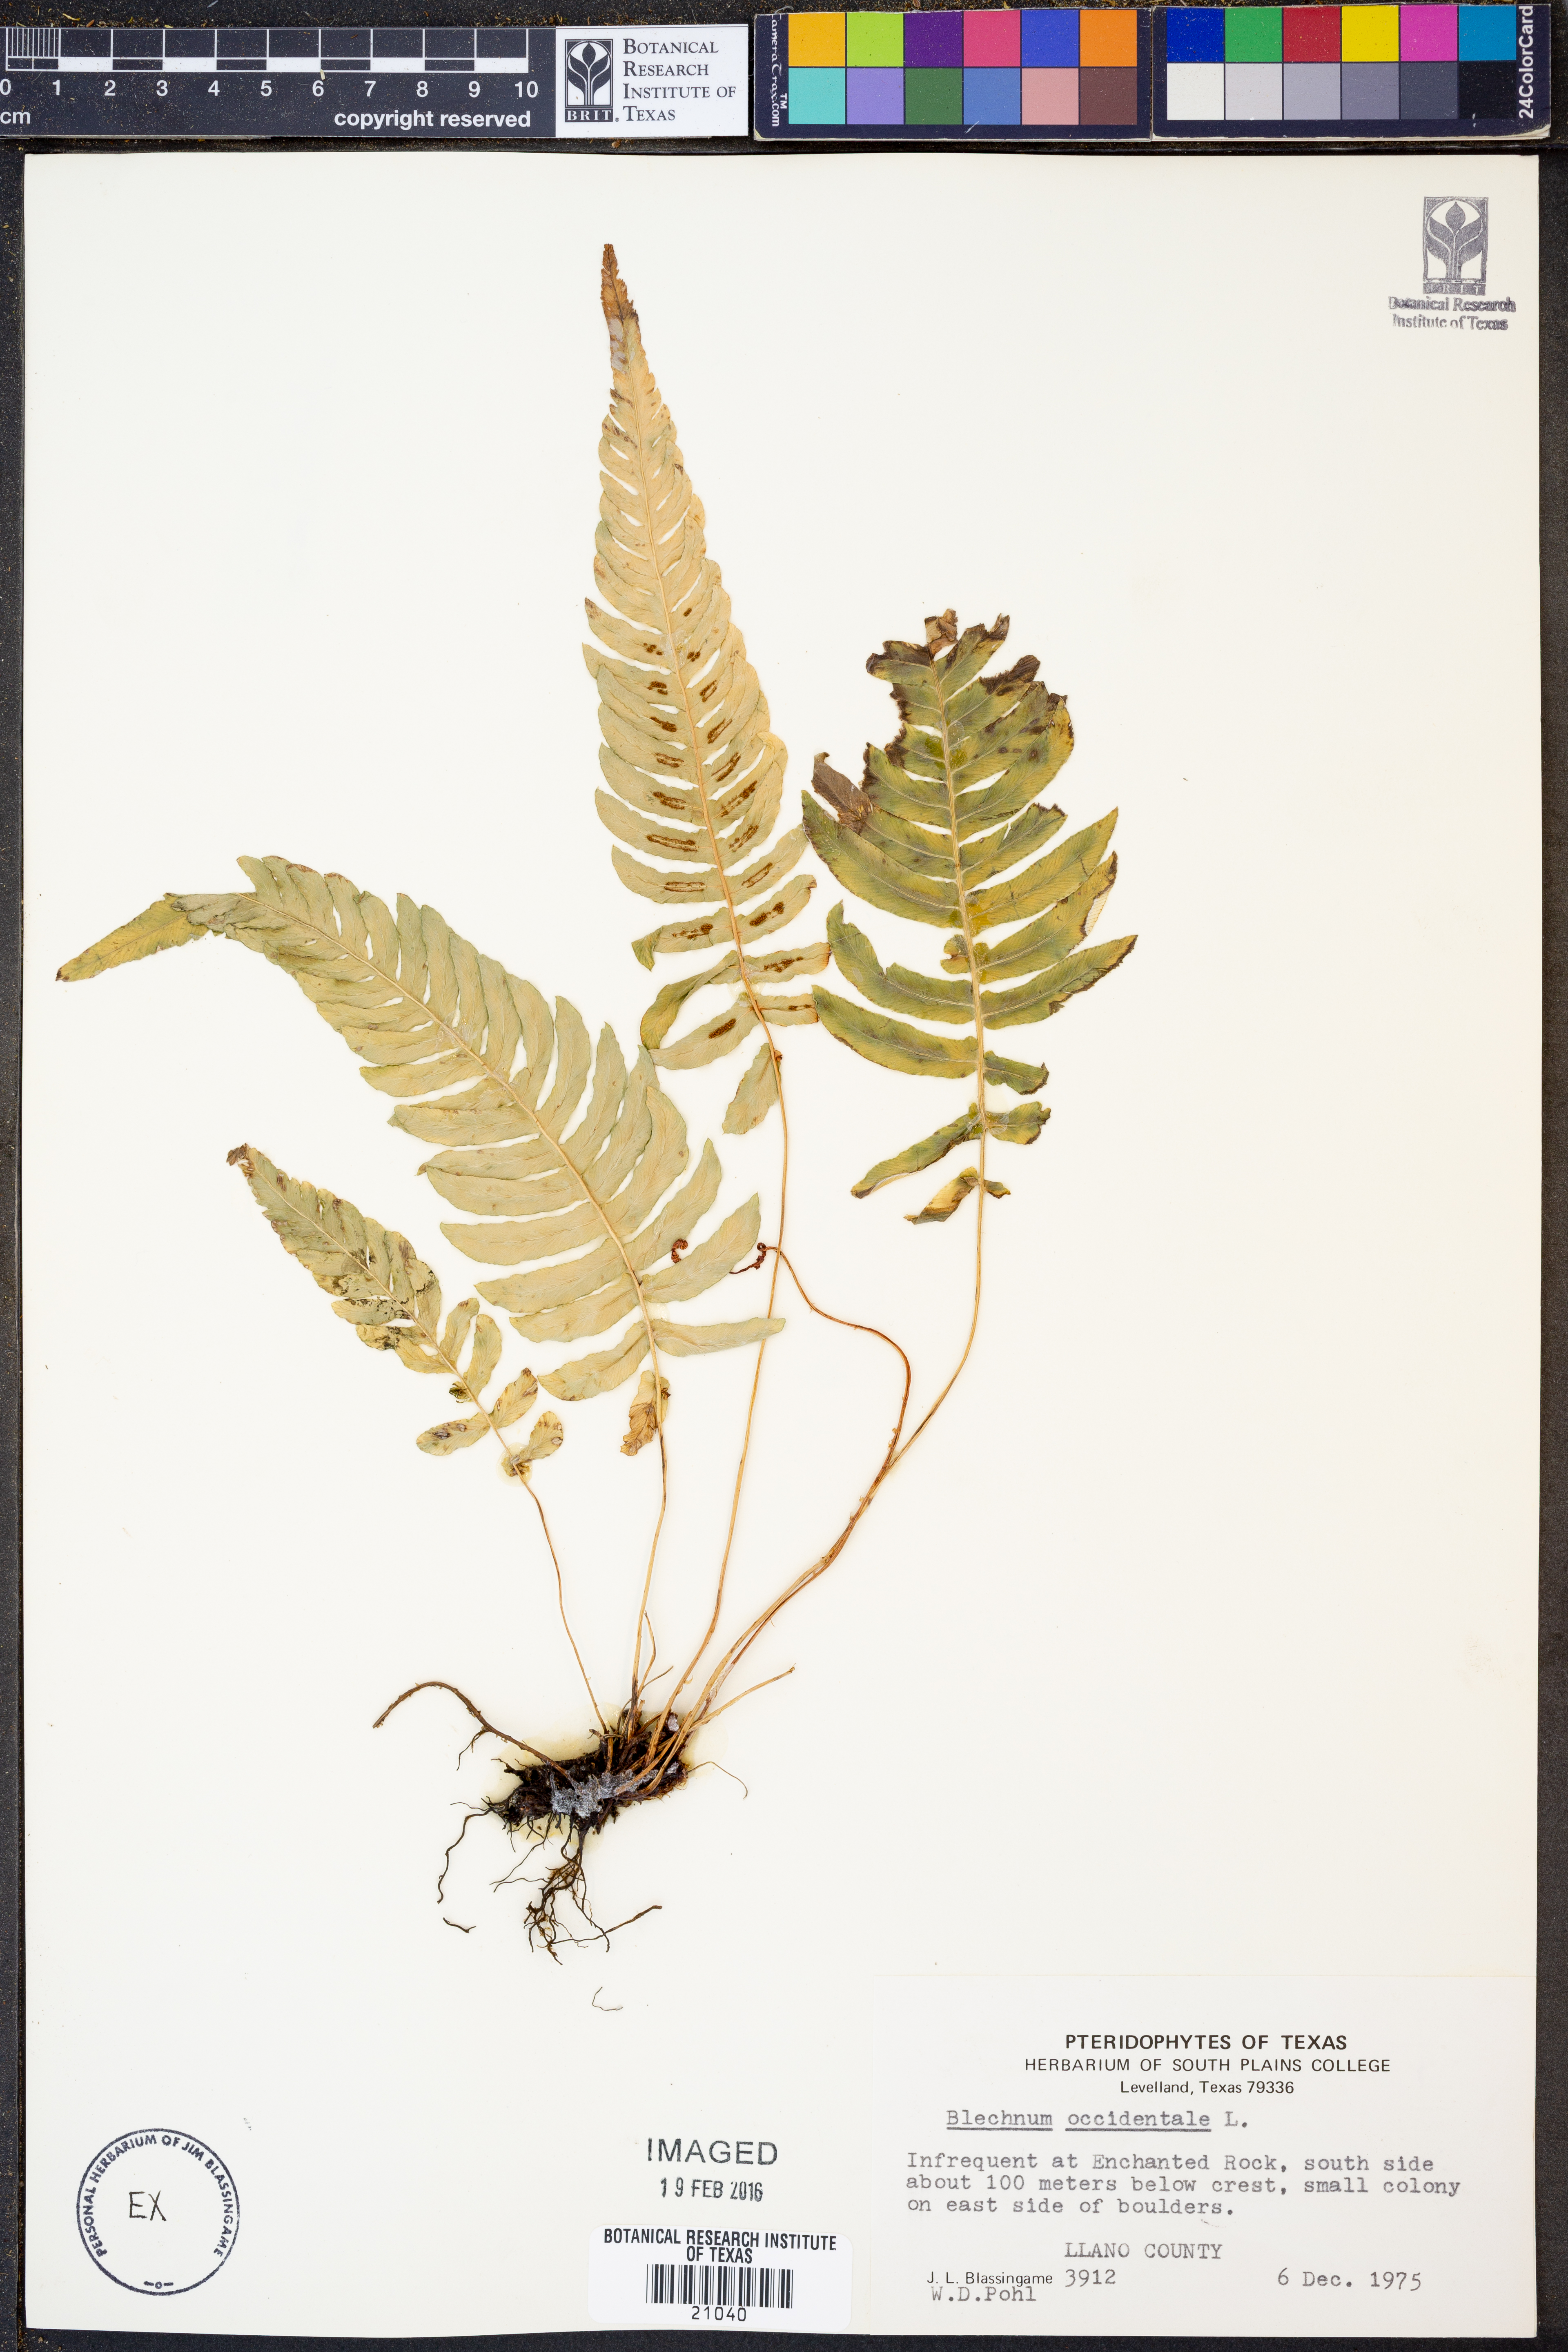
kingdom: Plantae
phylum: Tracheophyta
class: Polypodiopsida
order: Polypodiales
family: Blechnaceae
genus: Blechnum
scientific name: Blechnum occidentale
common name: Hammock fern
